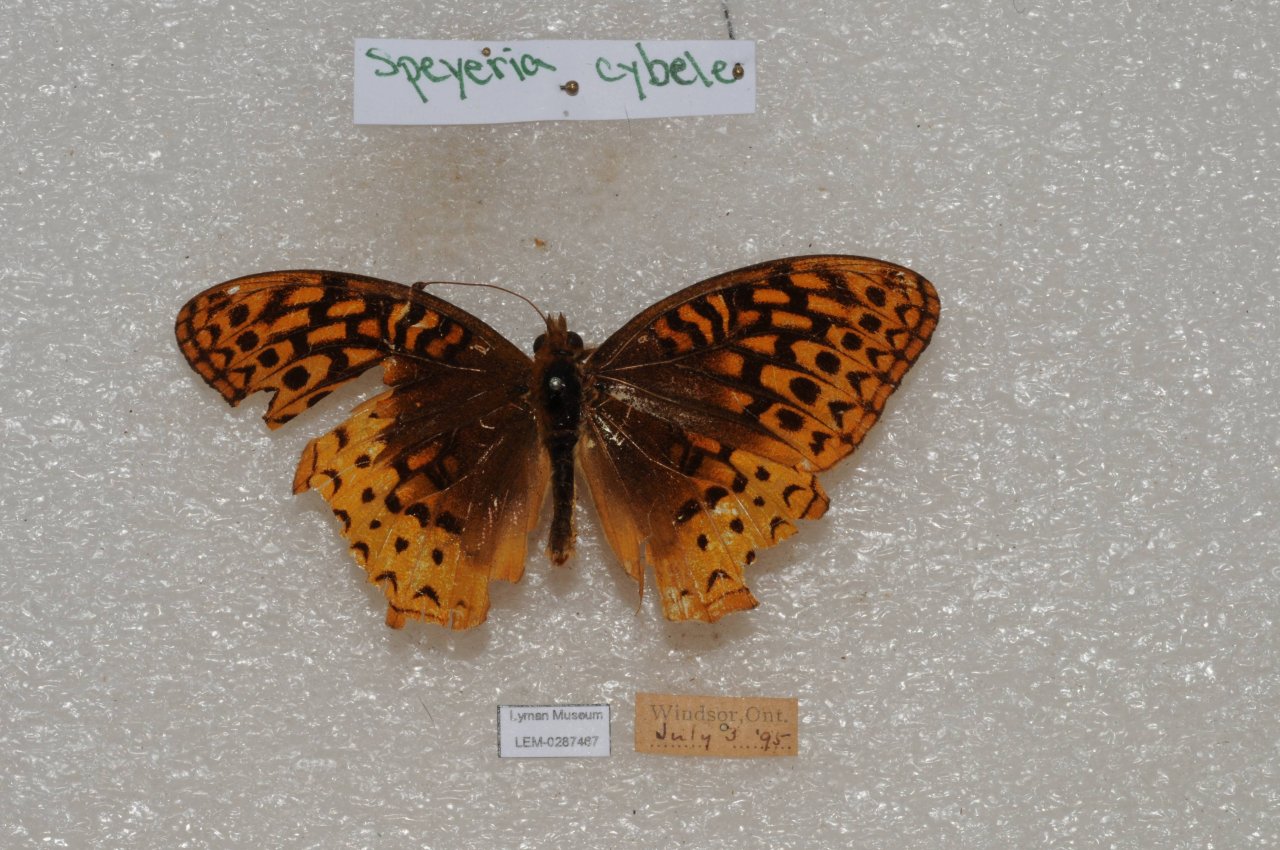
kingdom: Animalia
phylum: Arthropoda
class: Insecta
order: Lepidoptera
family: Nymphalidae
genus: Speyeria
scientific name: Speyeria cybele
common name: Great Spangled Fritillary
